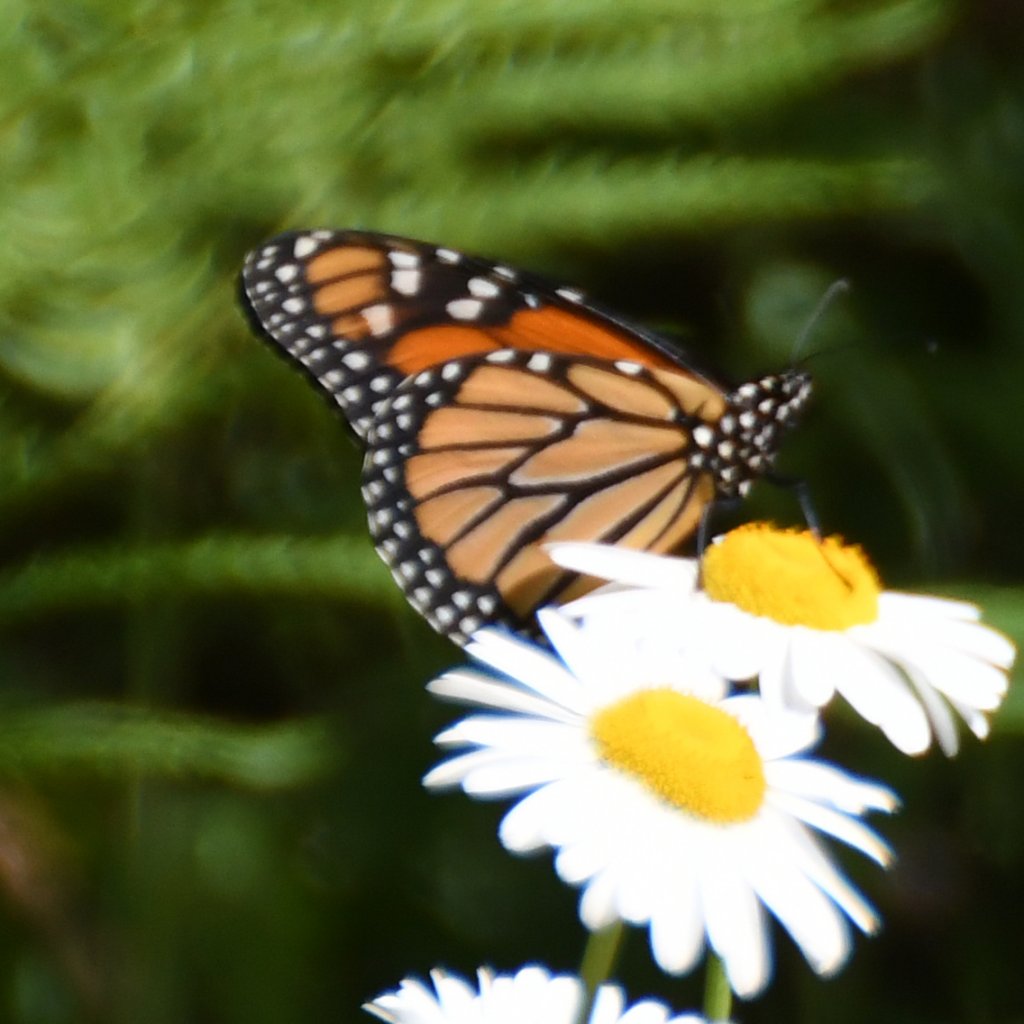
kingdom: Animalia
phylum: Arthropoda
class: Insecta
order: Lepidoptera
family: Nymphalidae
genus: Danaus
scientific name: Danaus plexippus
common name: Monarch
